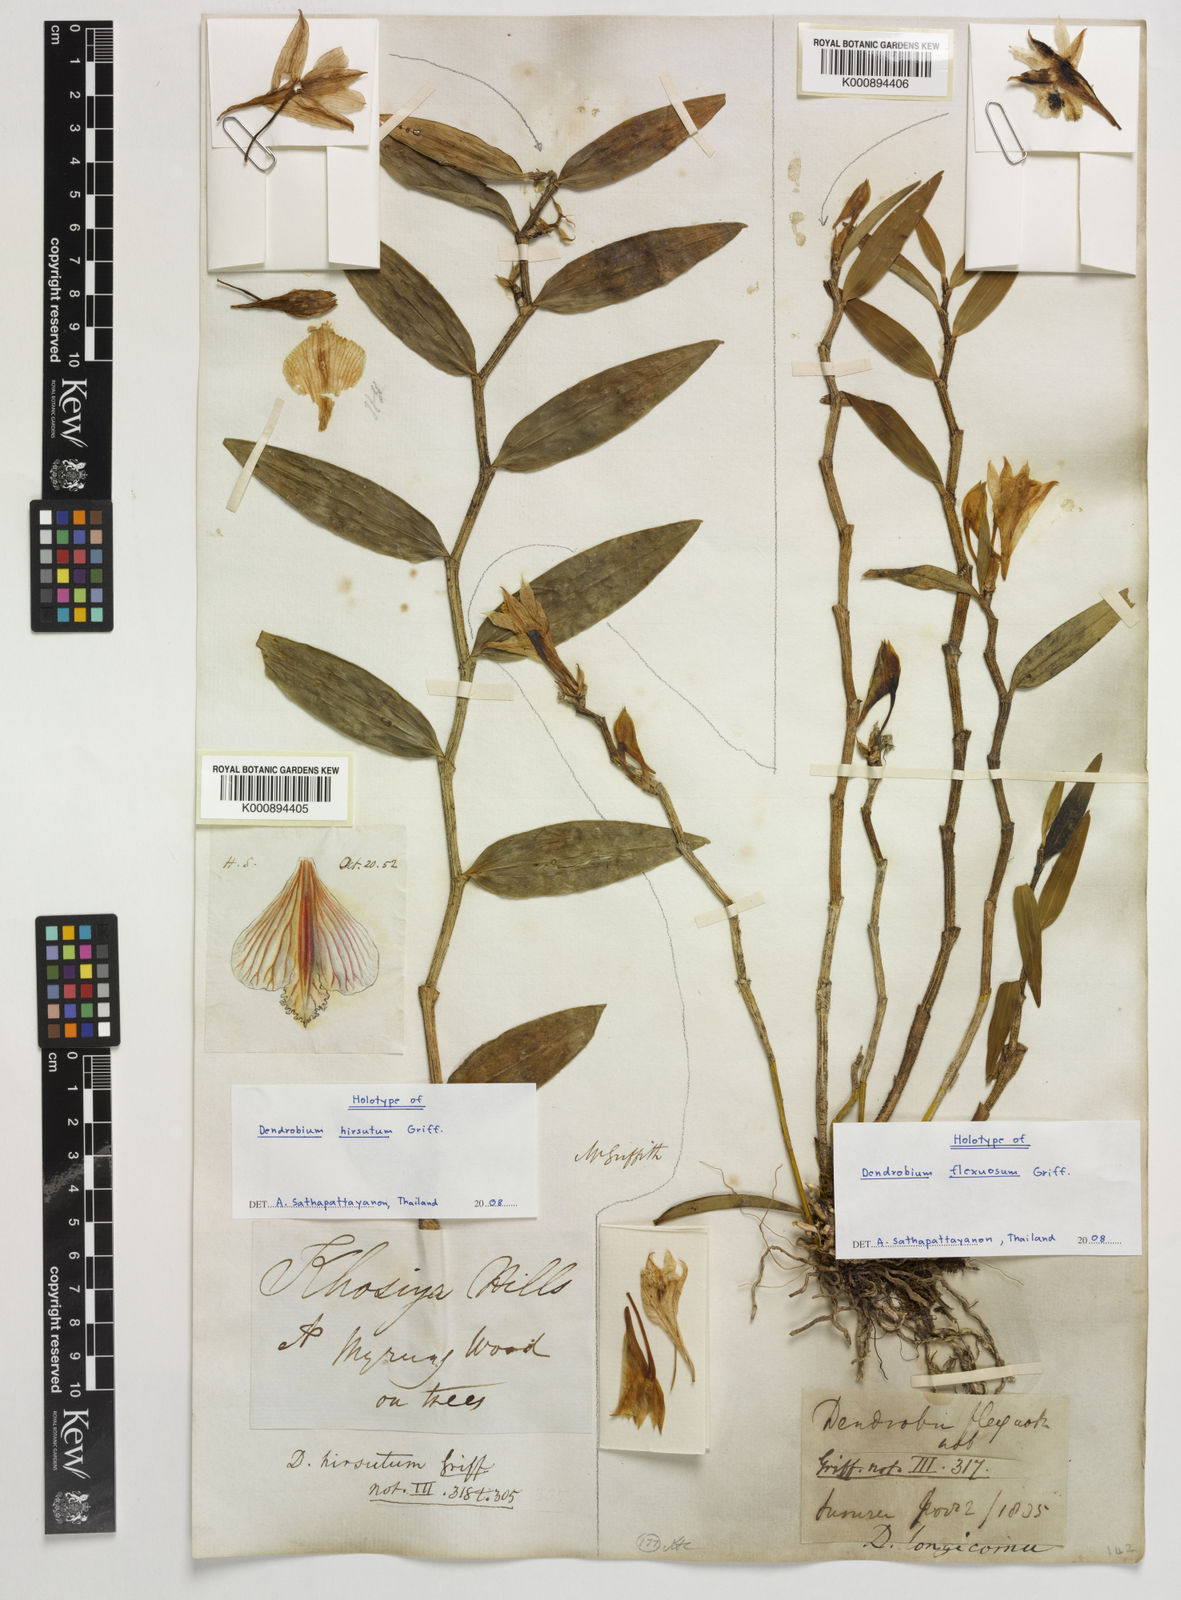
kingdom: Plantae
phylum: Tracheophyta
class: Liliopsida
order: Asparagales
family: Orchidaceae
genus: Dendrobium
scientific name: Dendrobium longicornu
